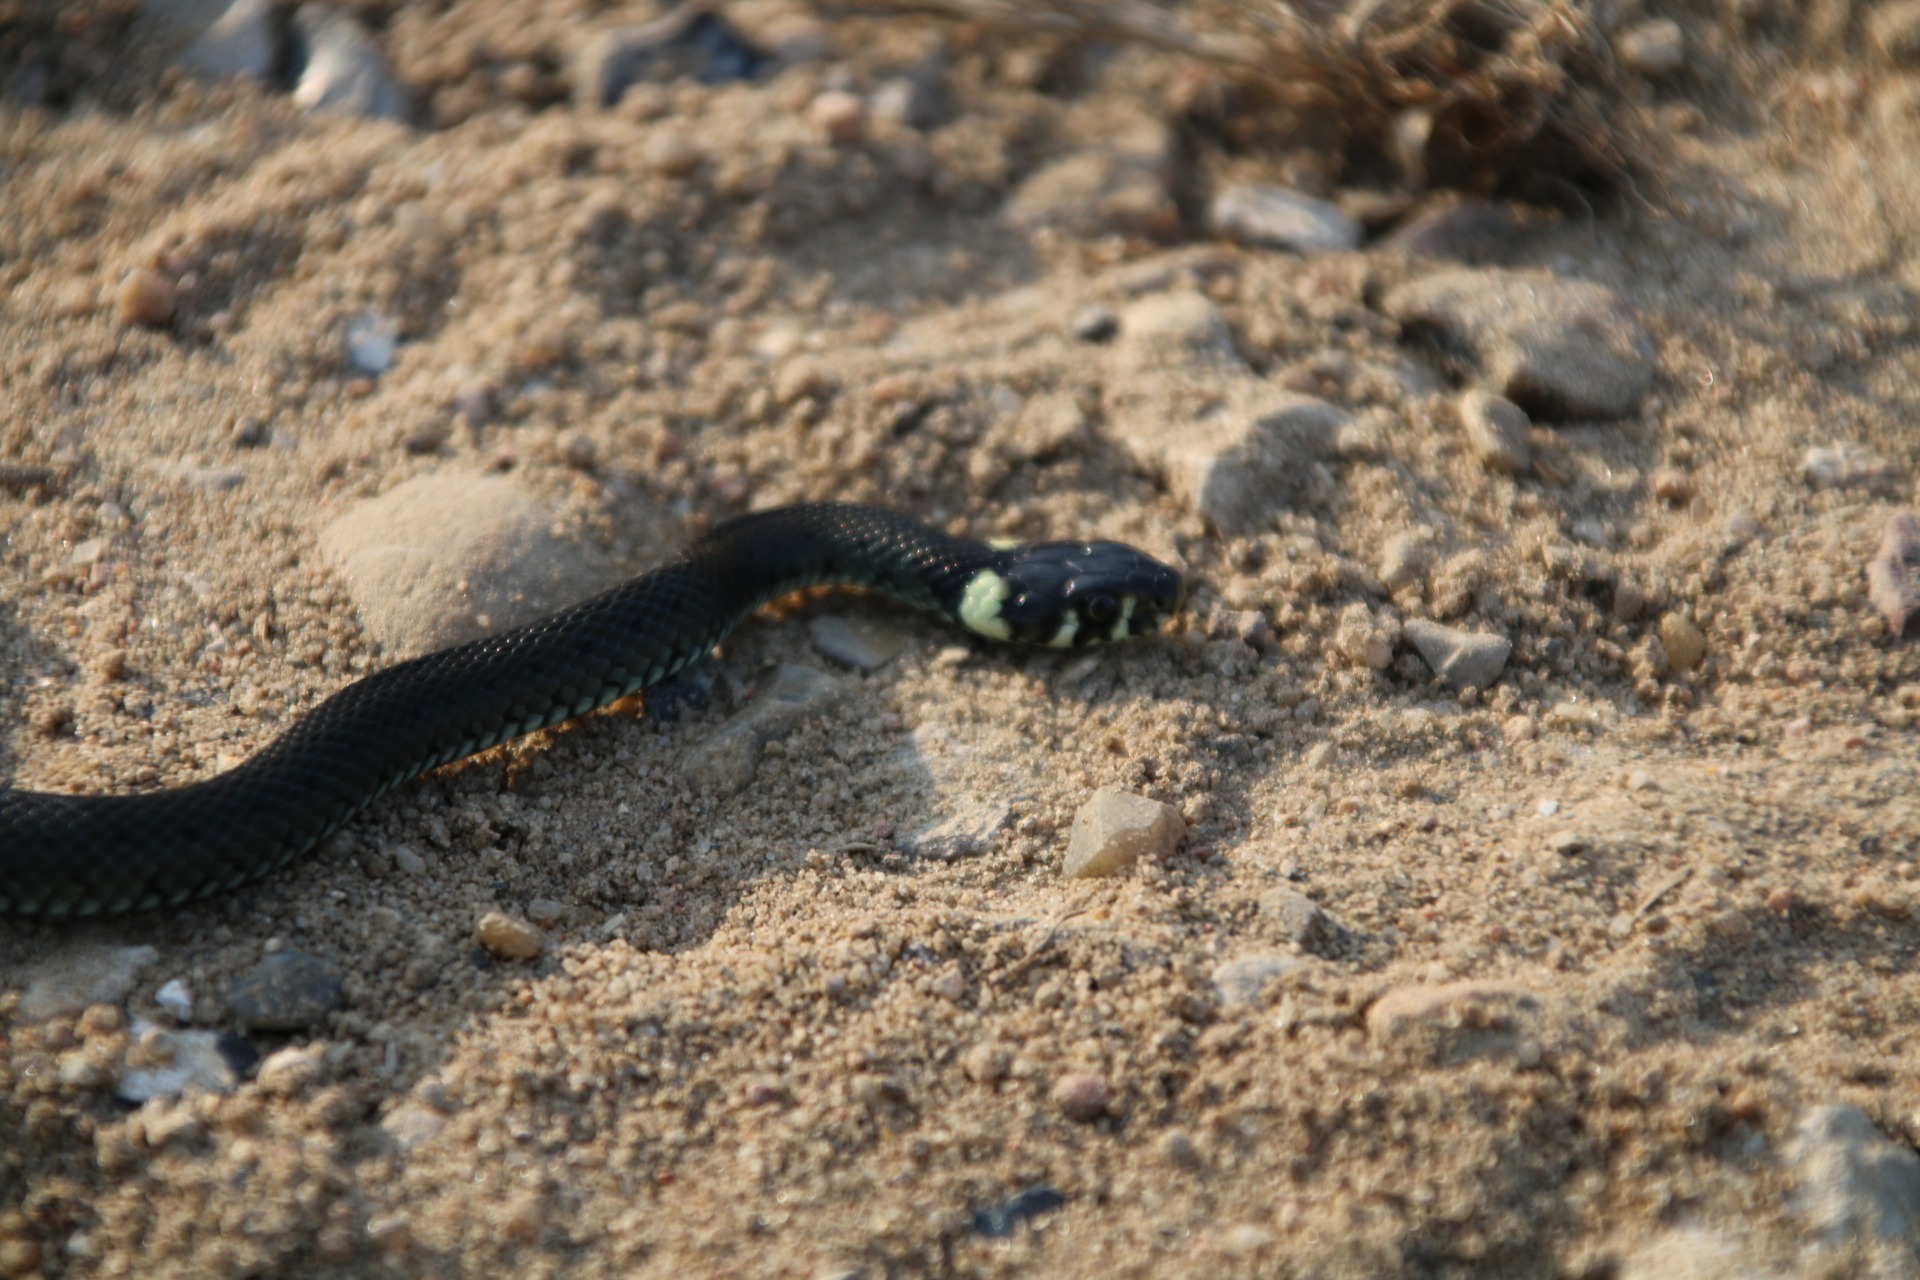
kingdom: Animalia
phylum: Chordata
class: Squamata
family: Colubridae
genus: Natrix
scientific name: Natrix natrix
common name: Snog
